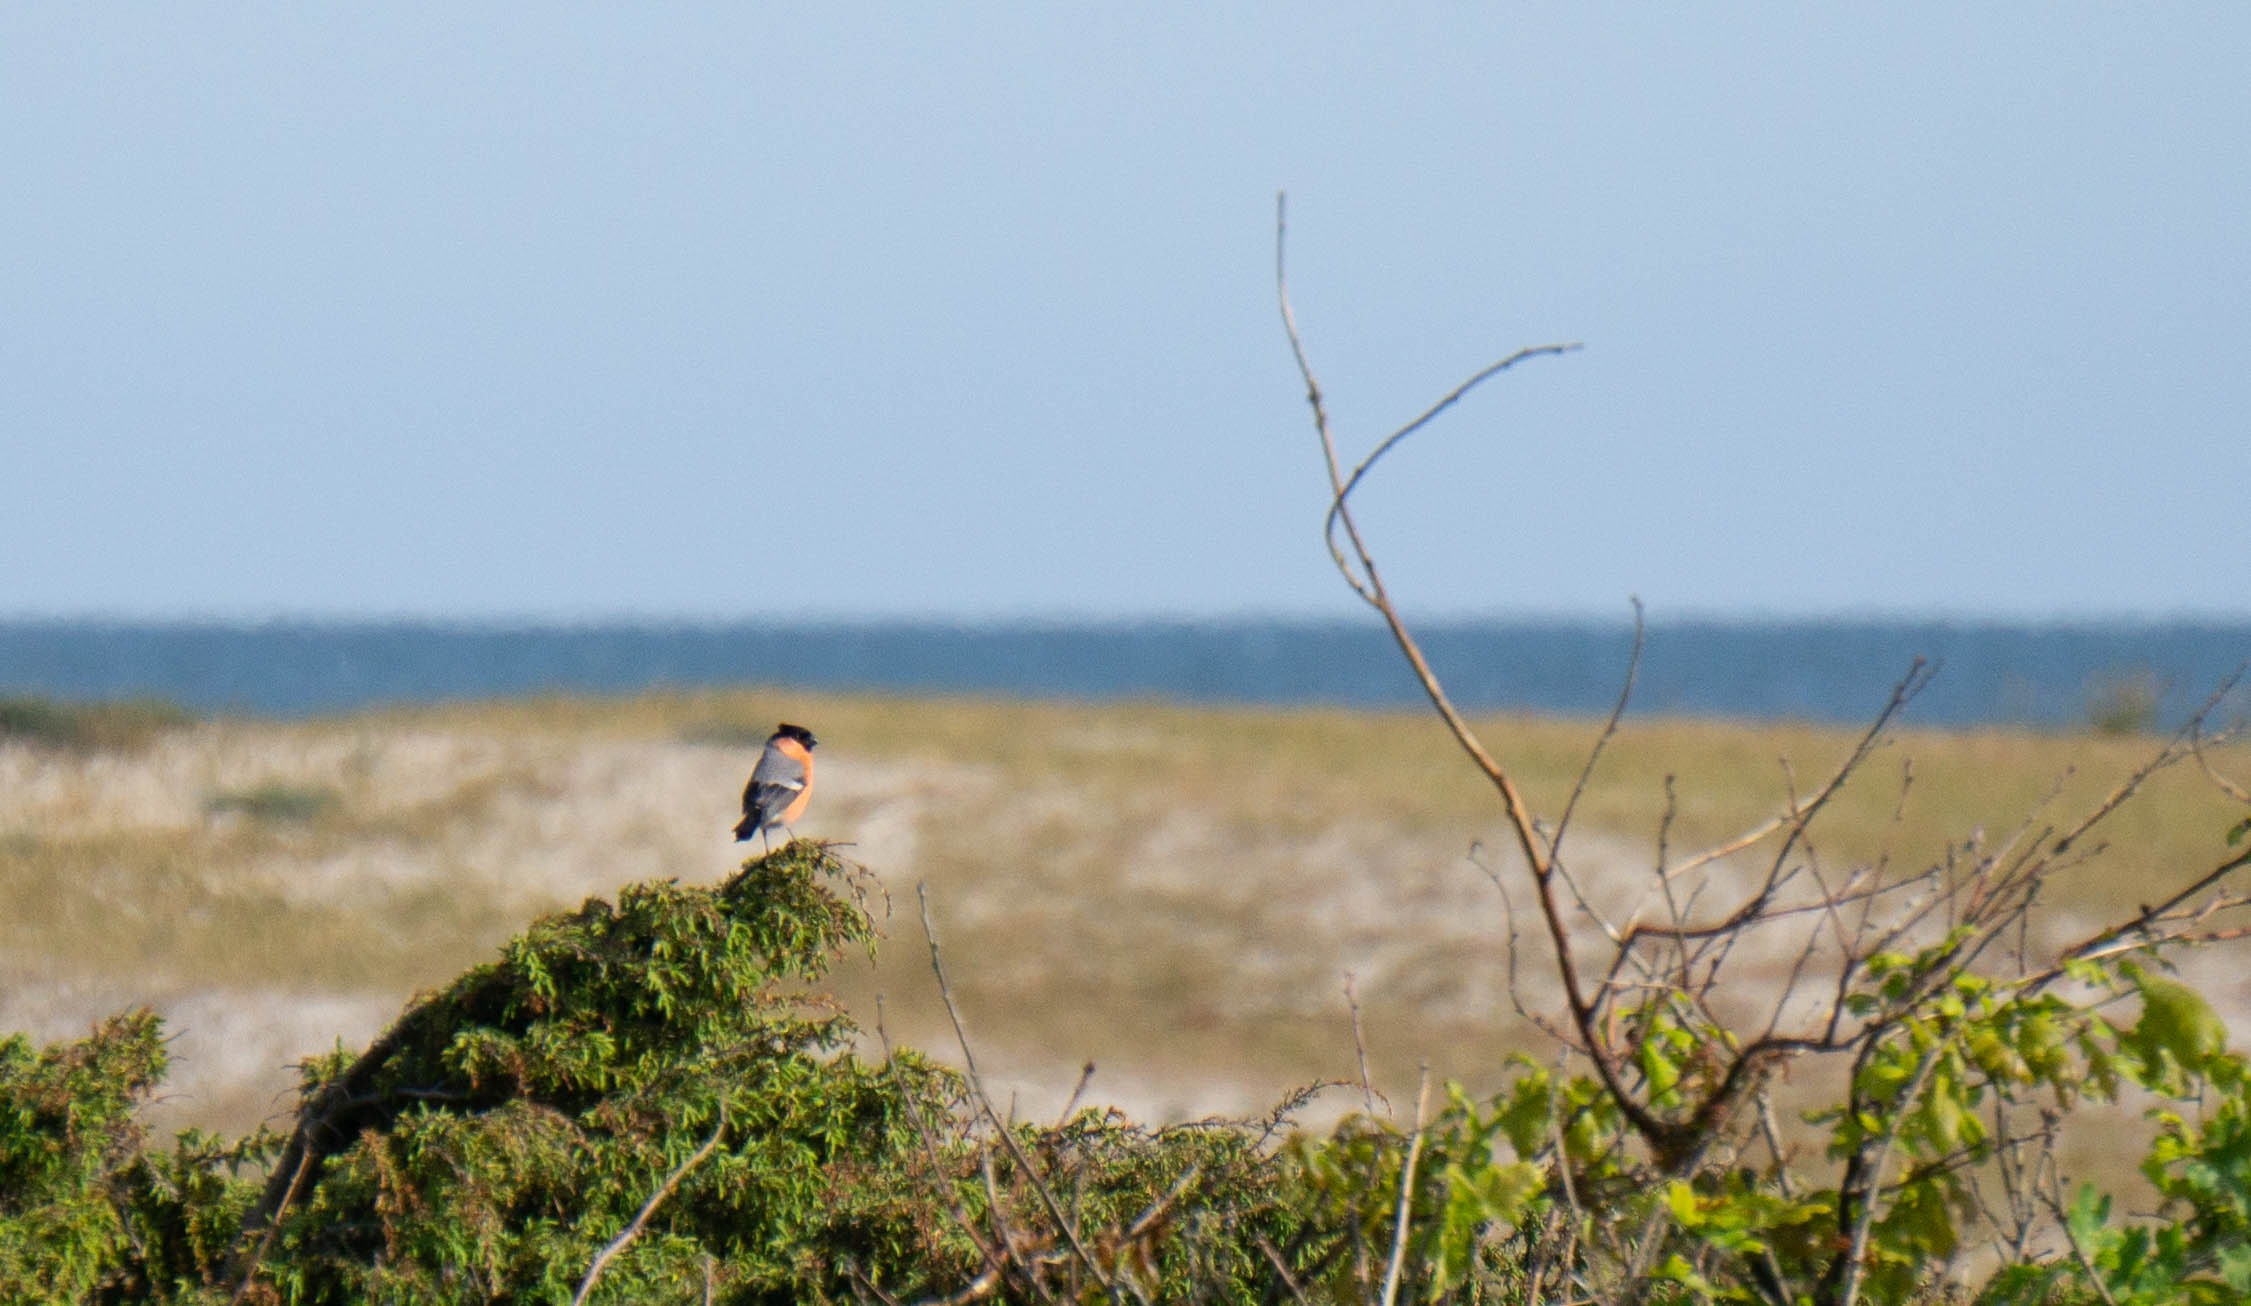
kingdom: Animalia
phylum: Chordata
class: Aves
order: Passeriformes
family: Fringillidae
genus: Pyrrhula
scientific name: Pyrrhula pyrrhula
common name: Dompap
